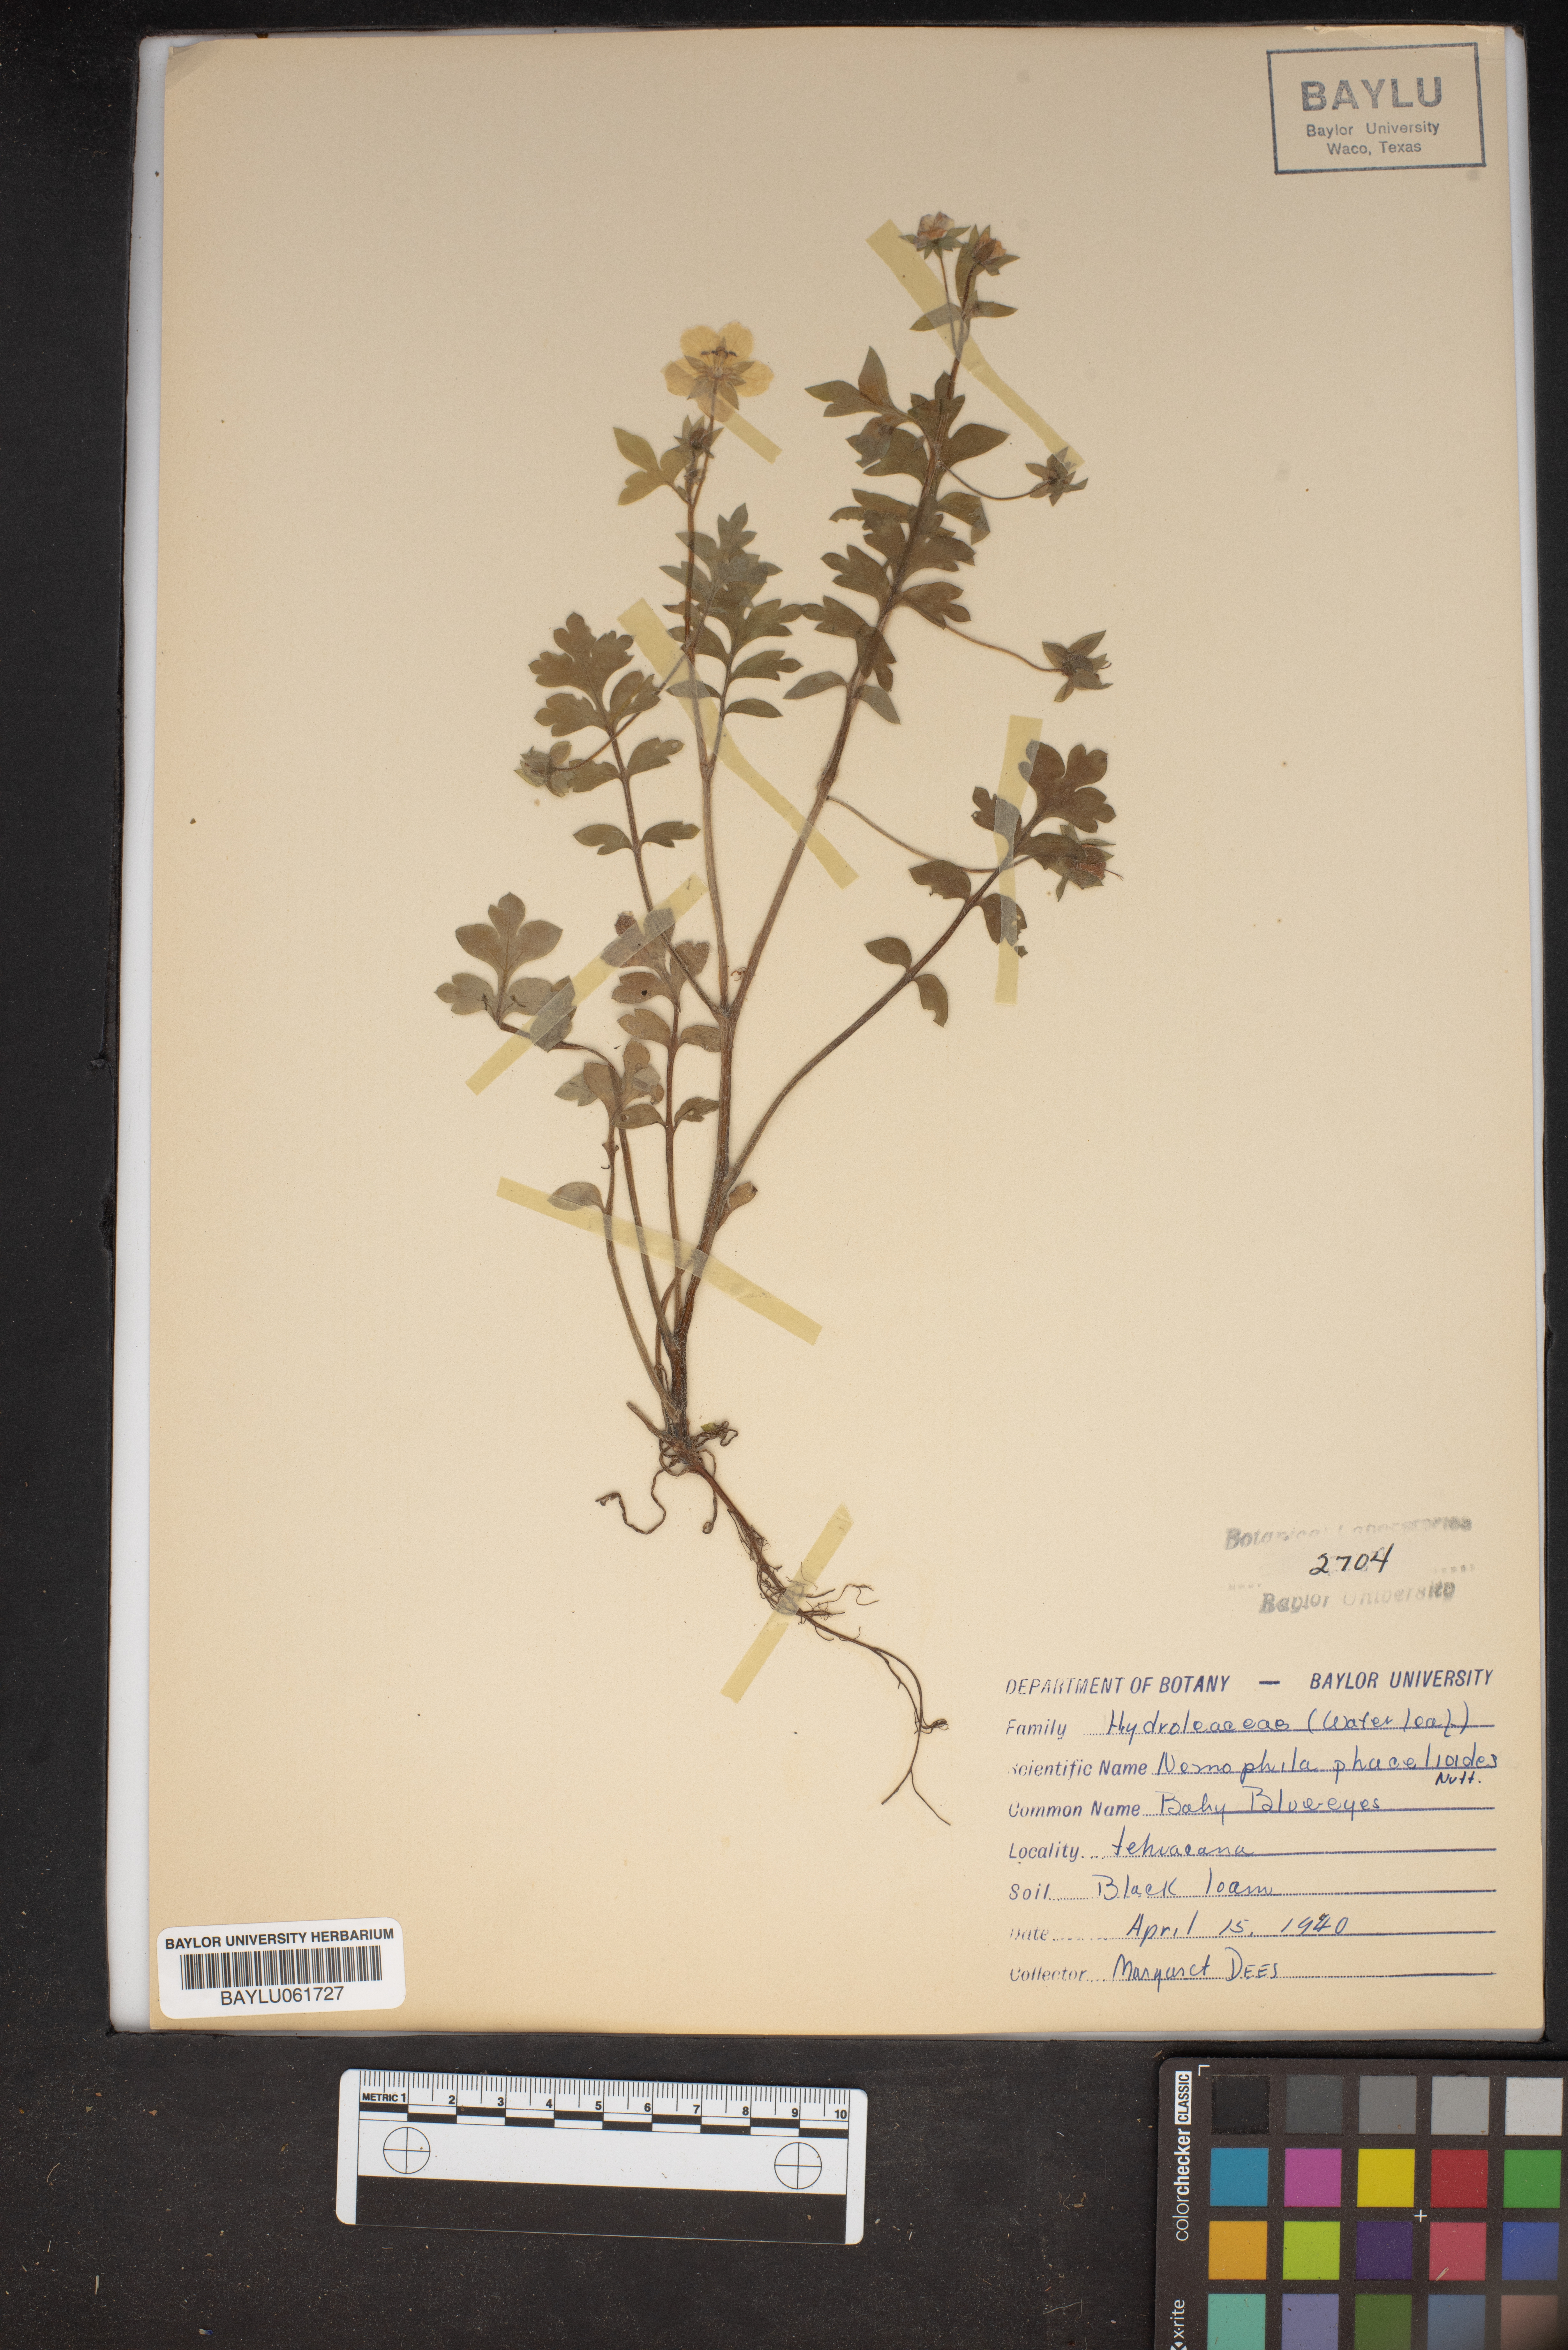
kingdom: Plantae
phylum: Tracheophyta
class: Magnoliopsida
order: Boraginales
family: Hydrophyllaceae
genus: Nemophila
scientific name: Nemophila phacelioides
